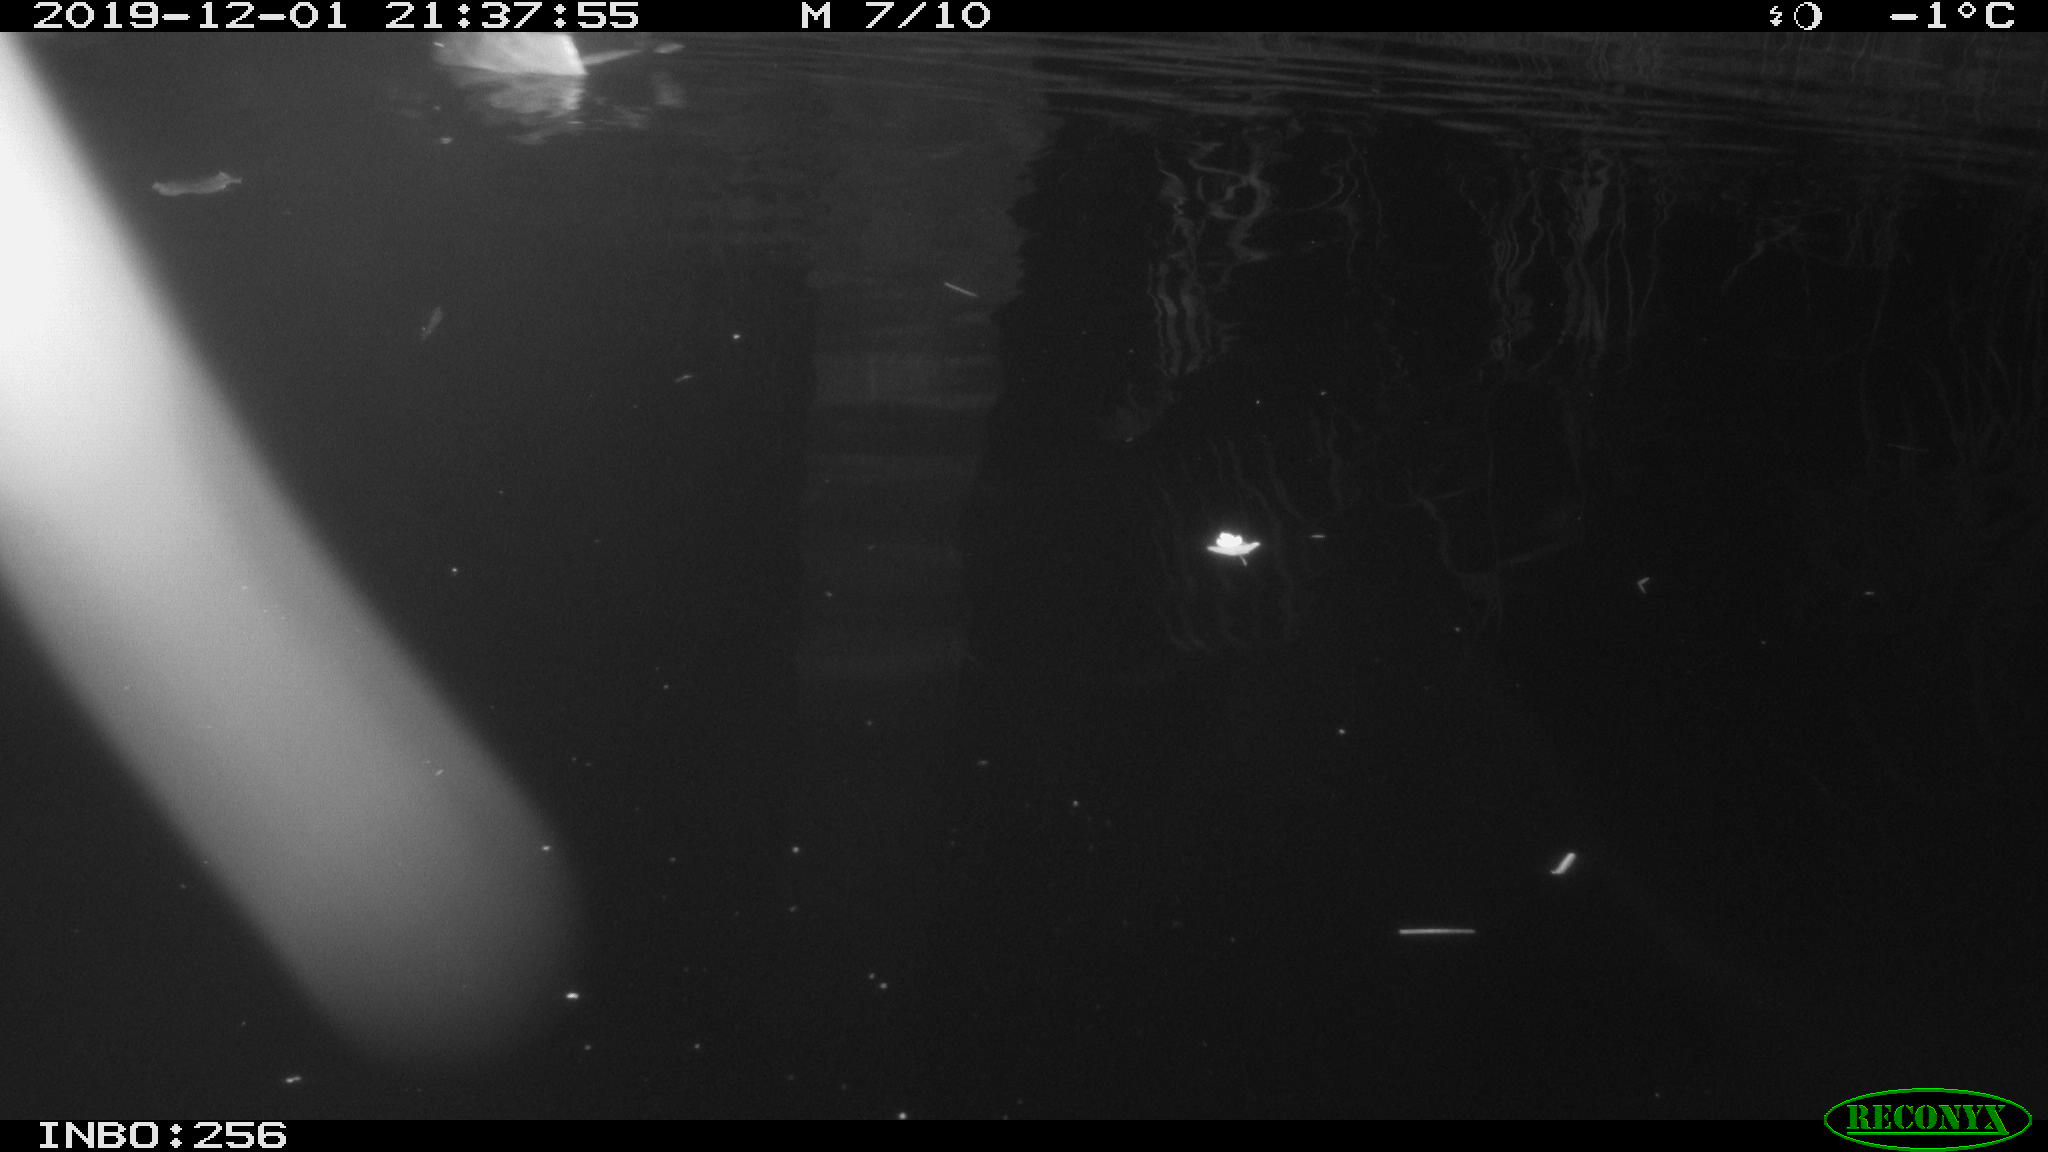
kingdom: Animalia
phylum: Chordata
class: Mammalia
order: Rodentia
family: Muridae
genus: Rattus
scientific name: Rattus norvegicus
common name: Brown rat
